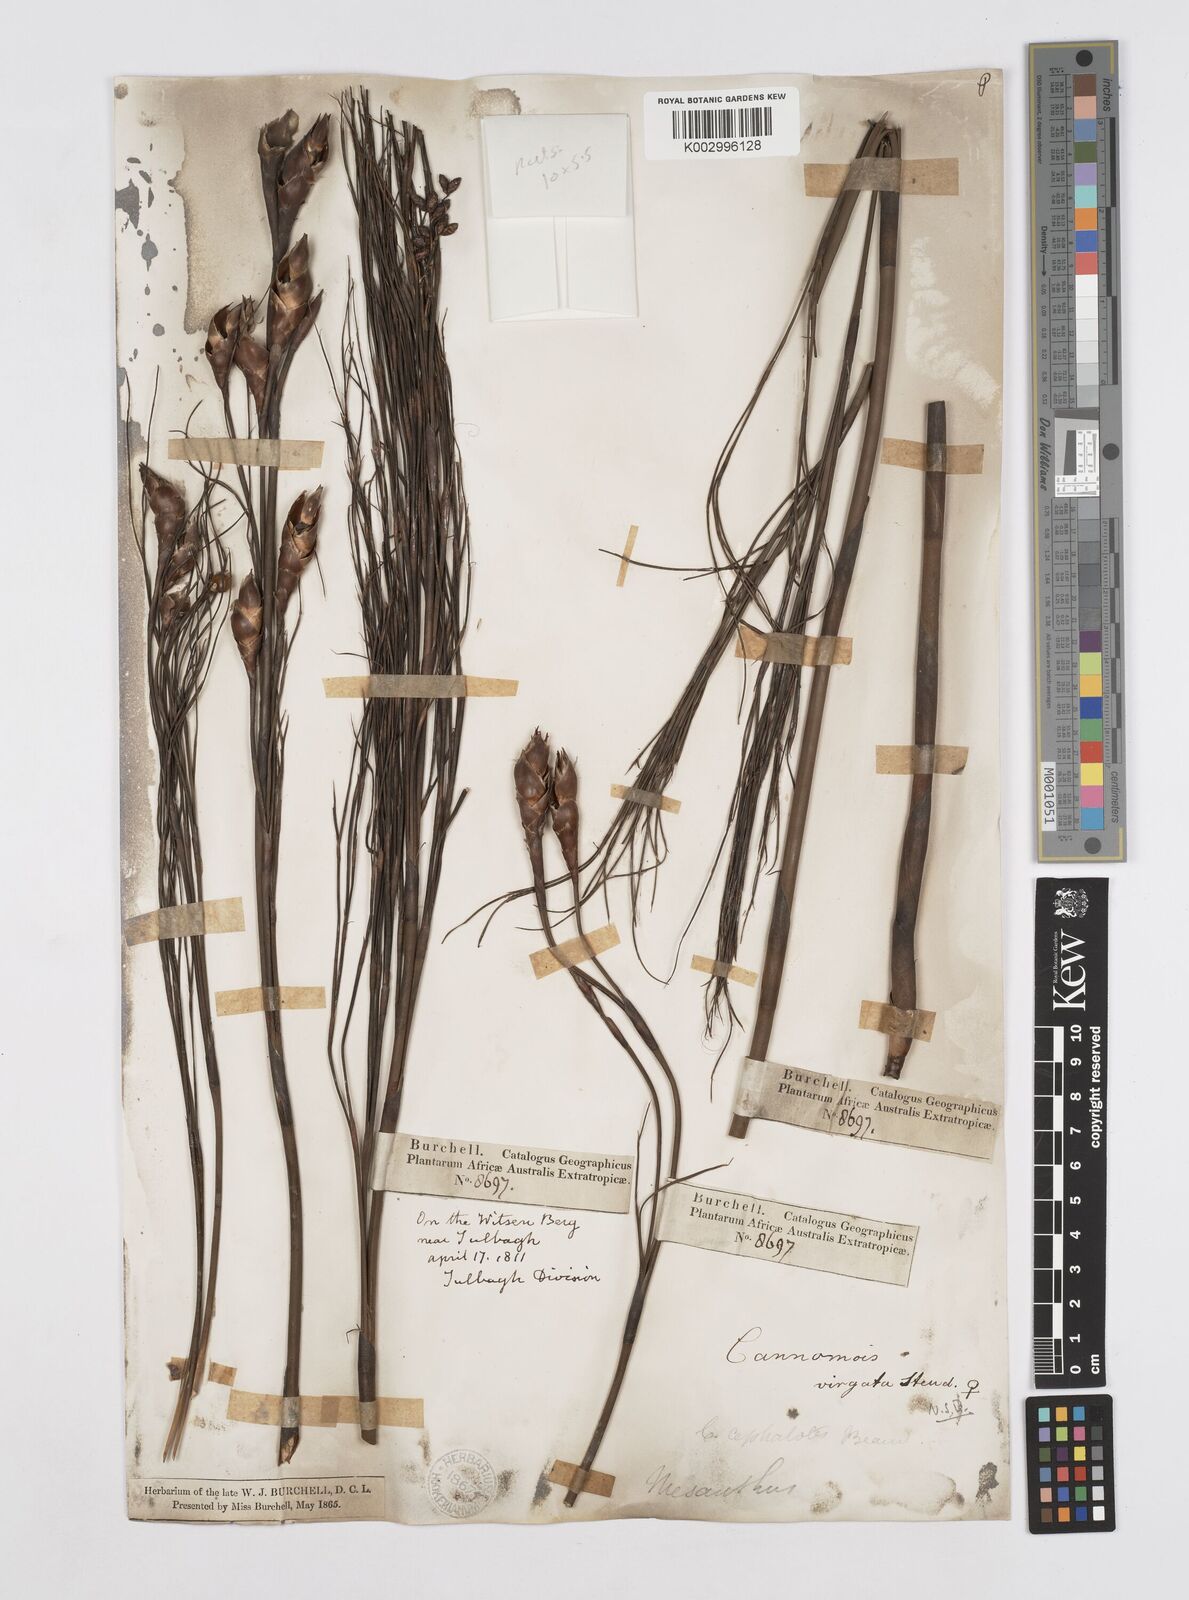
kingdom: Plantae
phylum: Tracheophyta
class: Liliopsida
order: Poales
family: Restionaceae
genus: Cannomois
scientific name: Cannomois virgata
